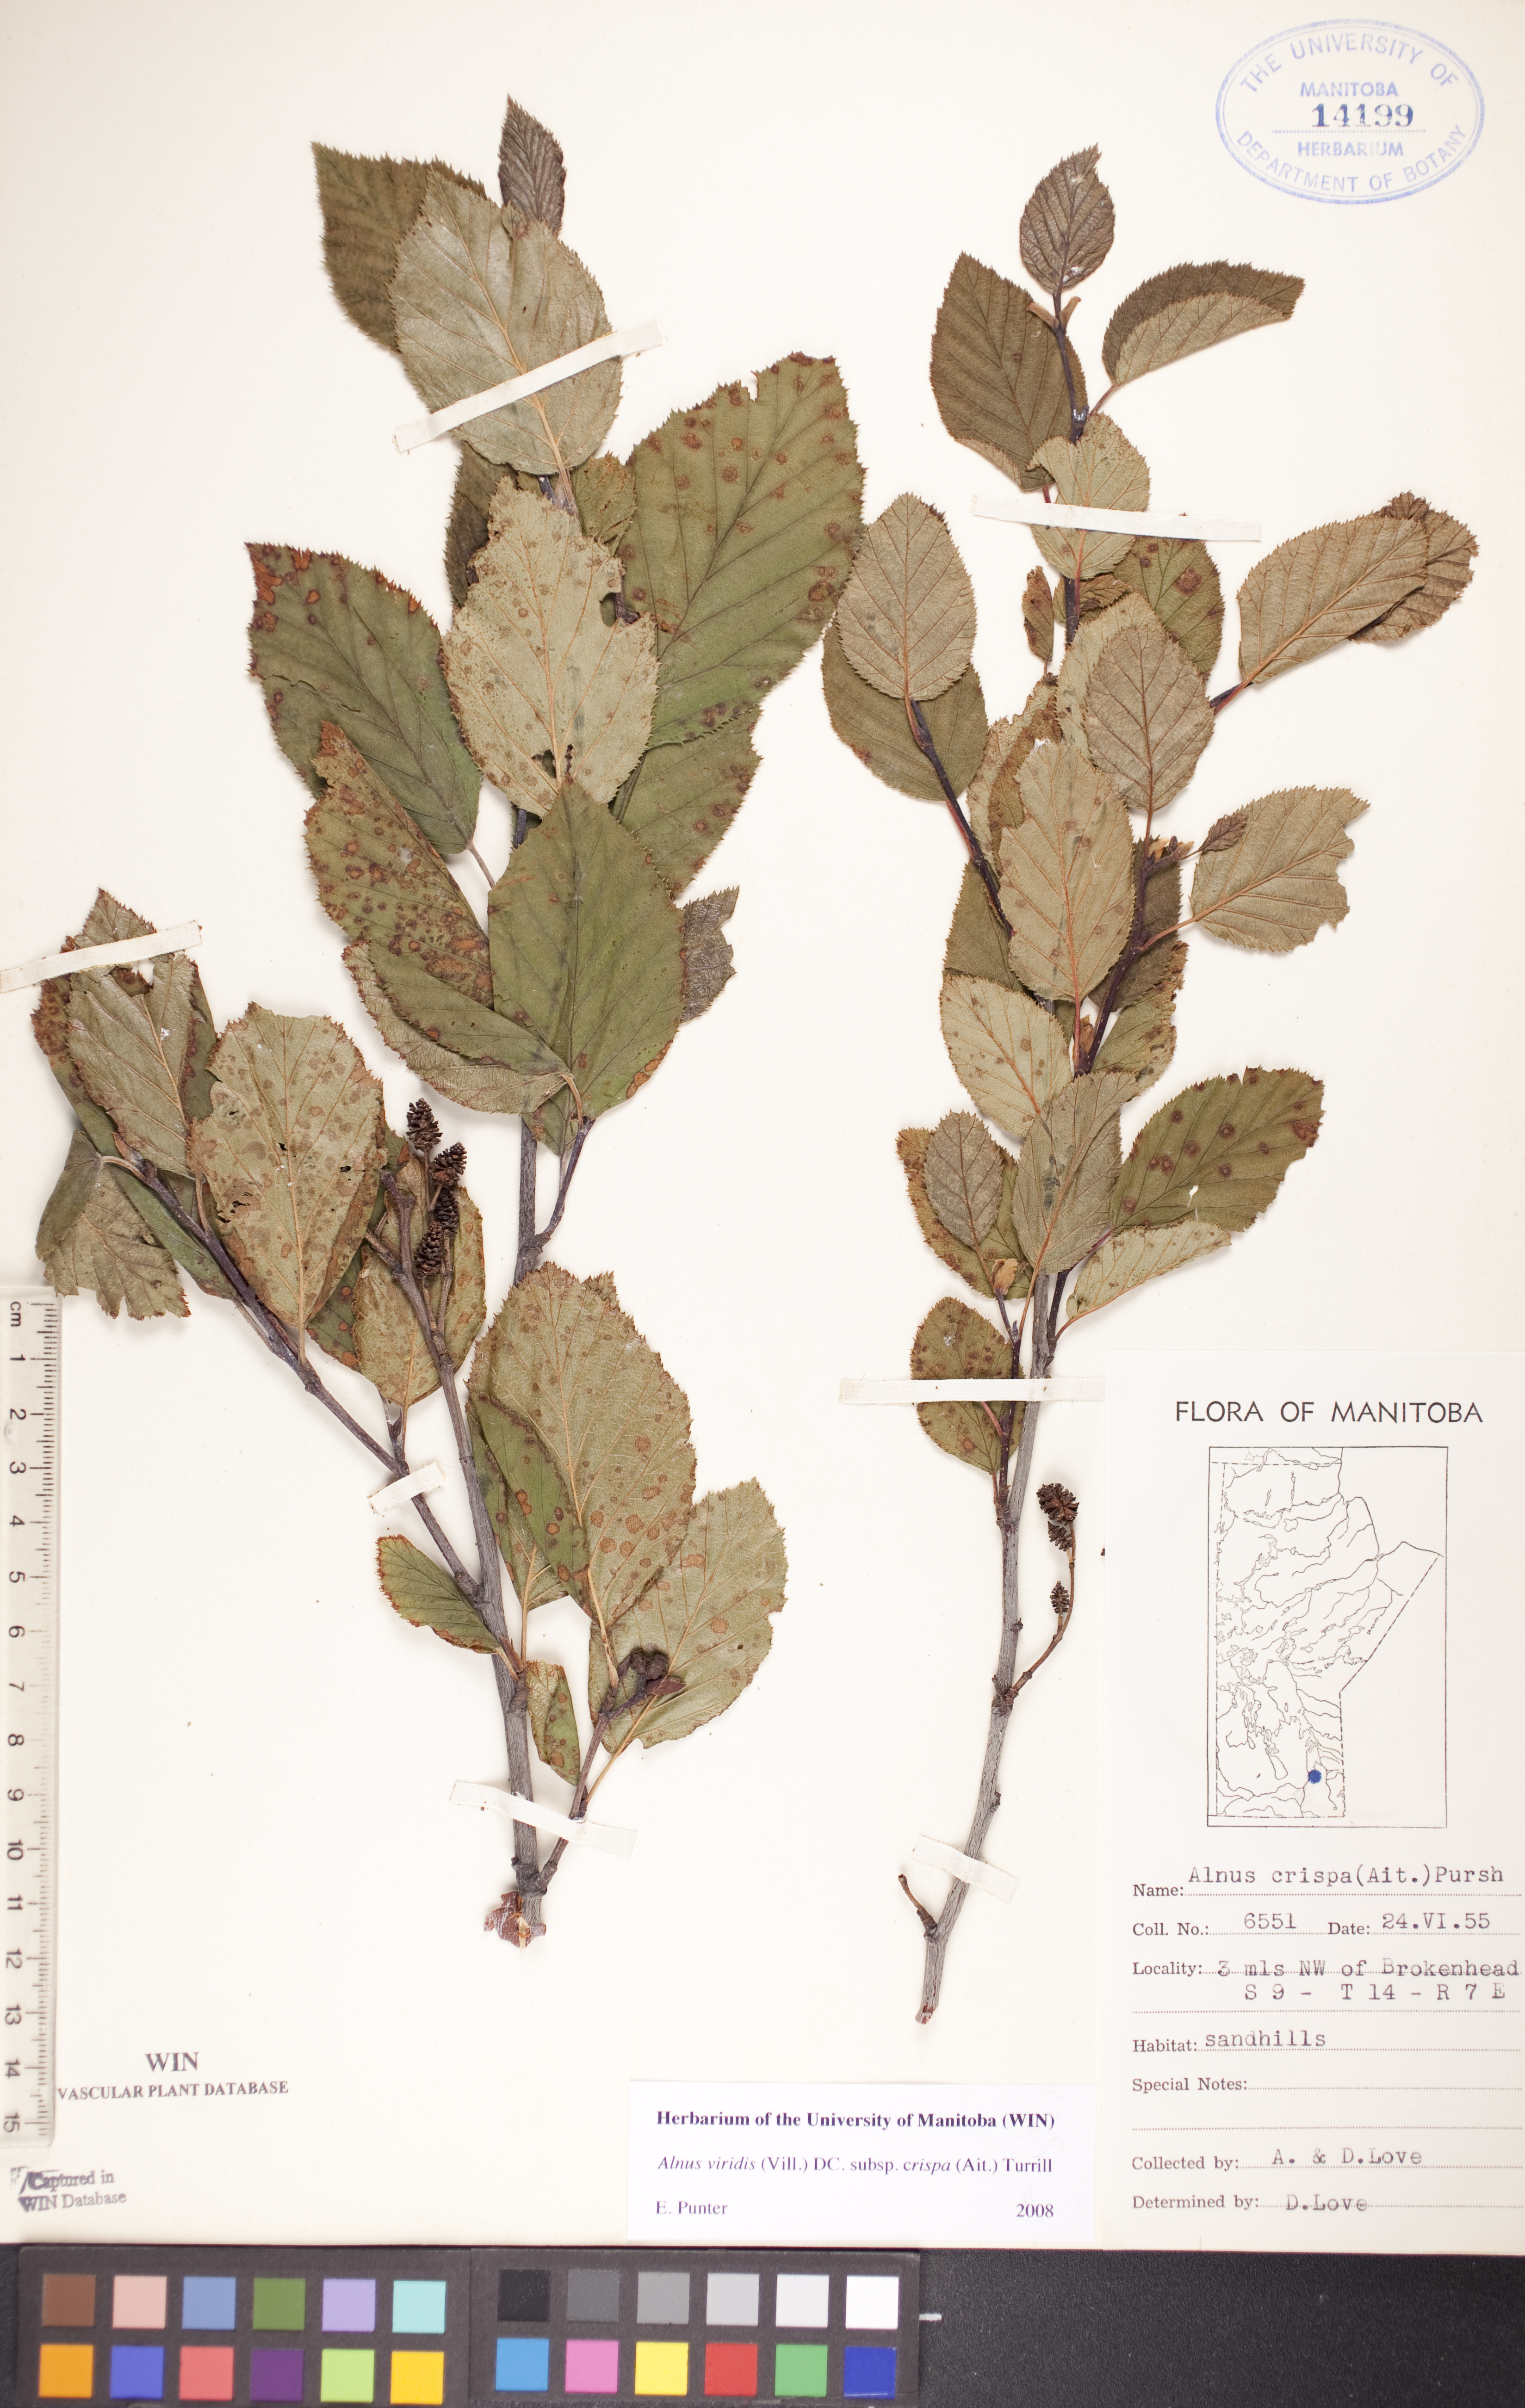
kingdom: Plantae
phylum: Tracheophyta
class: Magnoliopsida
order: Fagales
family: Betulaceae
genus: Alnus
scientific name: Alnus alnobetula
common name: Green alder
